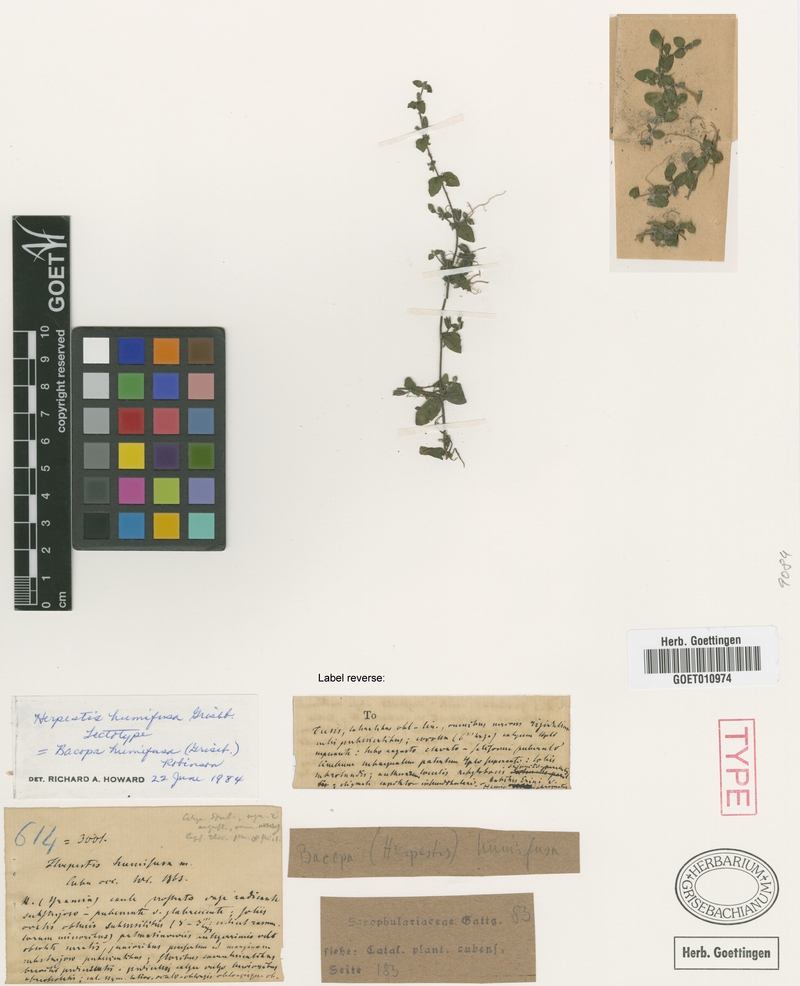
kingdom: Plantae
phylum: Tracheophyta
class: Magnoliopsida
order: Lamiales
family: Plantaginaceae
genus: Bacopa
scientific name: Bacopa humifusa
